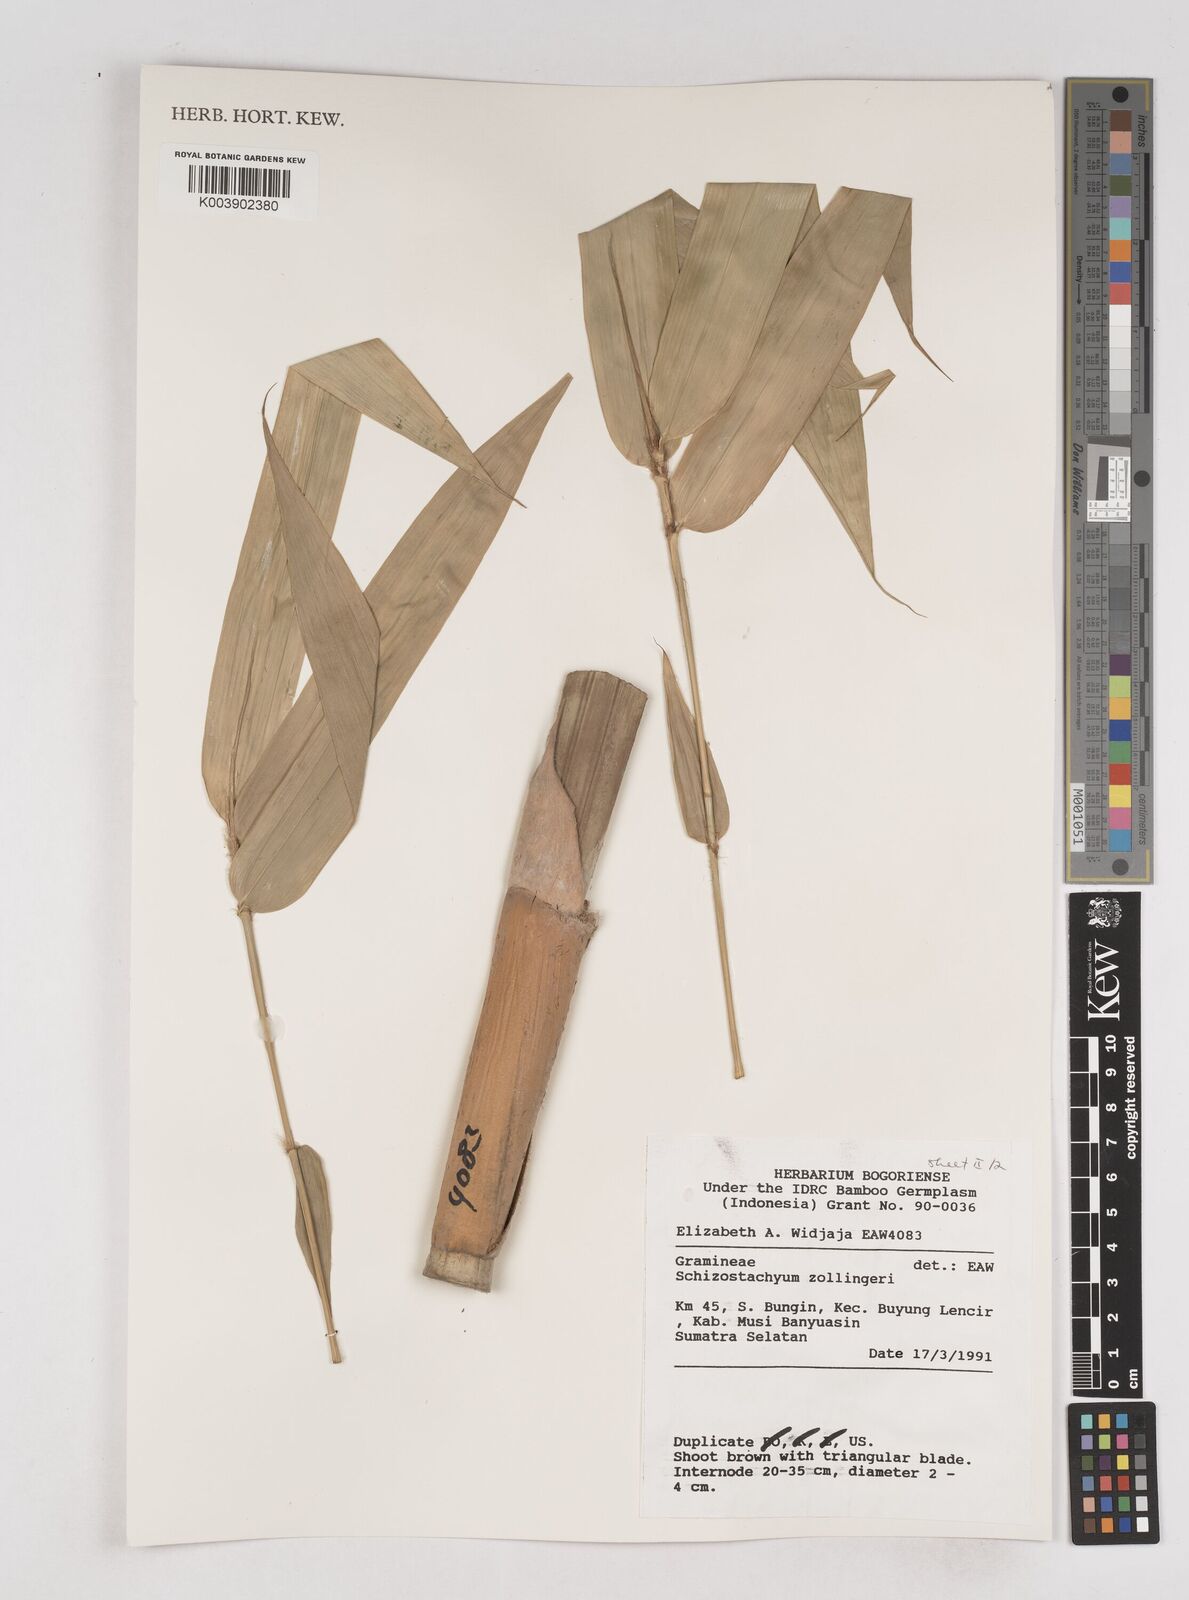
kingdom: Plantae
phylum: Tracheophyta
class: Liliopsida
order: Poales
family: Poaceae
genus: Schizostachyum
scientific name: Schizostachyum zollingeri
